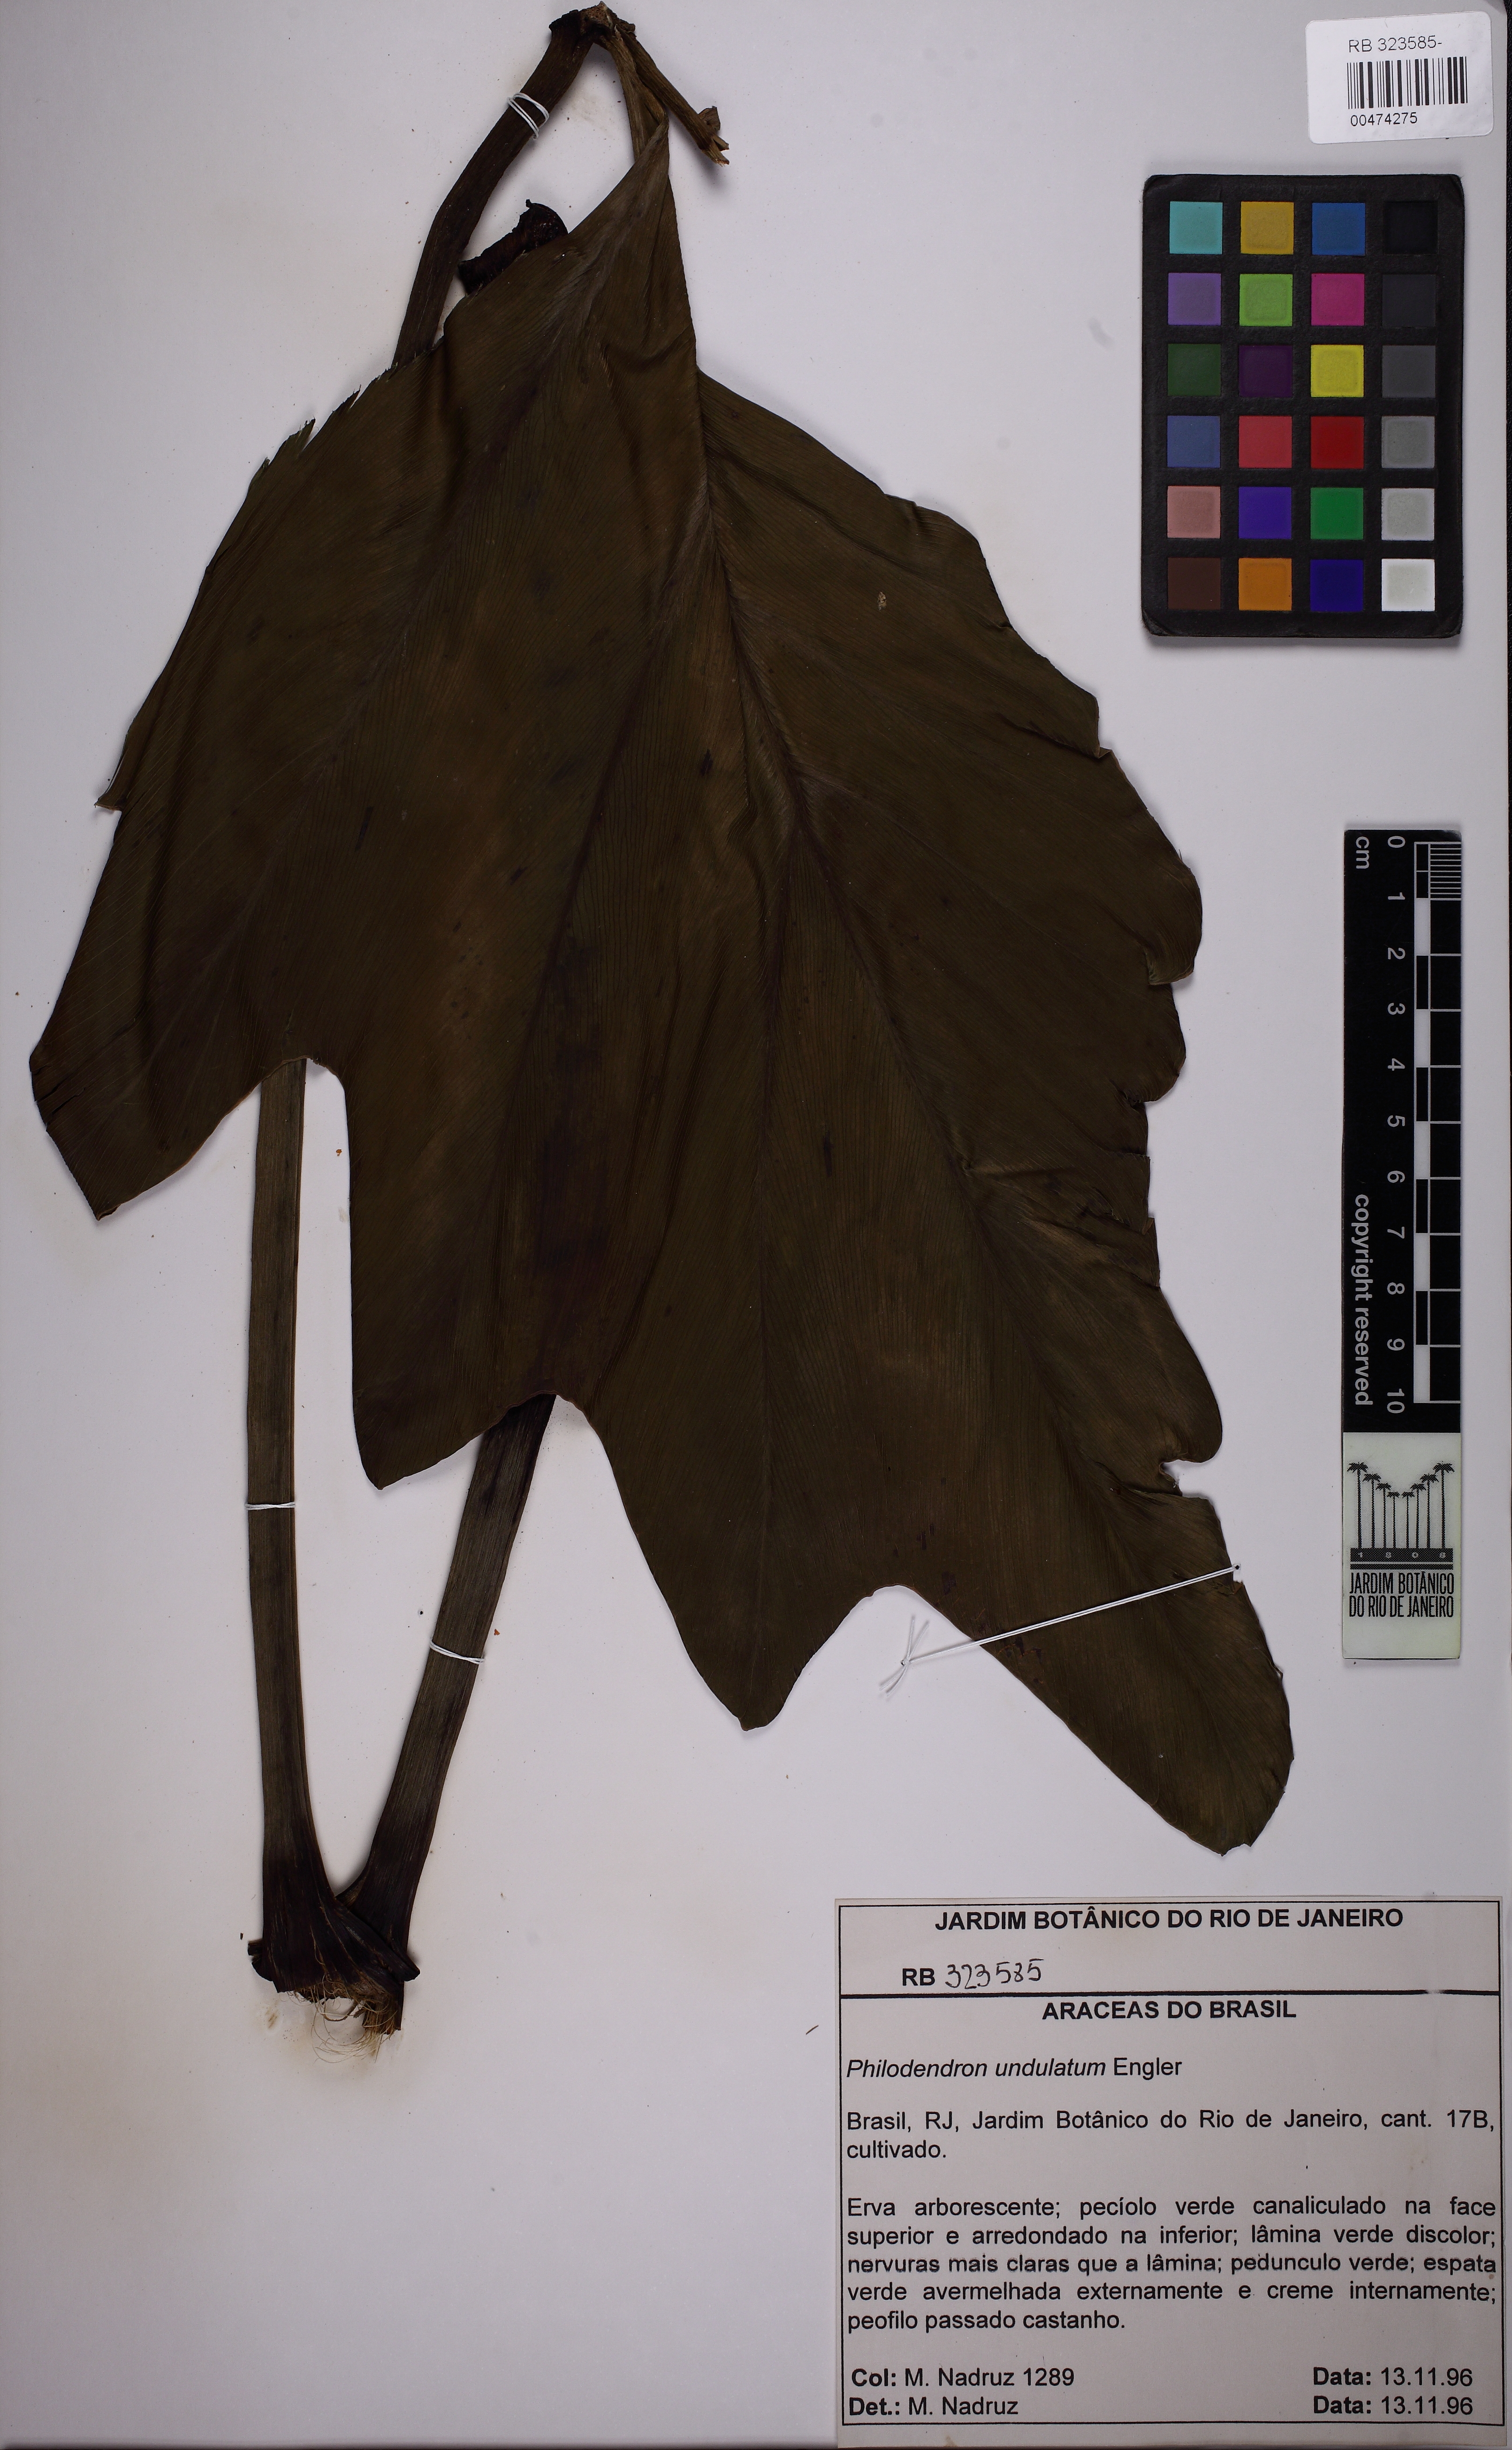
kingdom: Plantae
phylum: Tracheophyta
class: Liliopsida
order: Alismatales
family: Araceae
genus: Thaumatophyllum
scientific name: Thaumatophyllum undulatum
